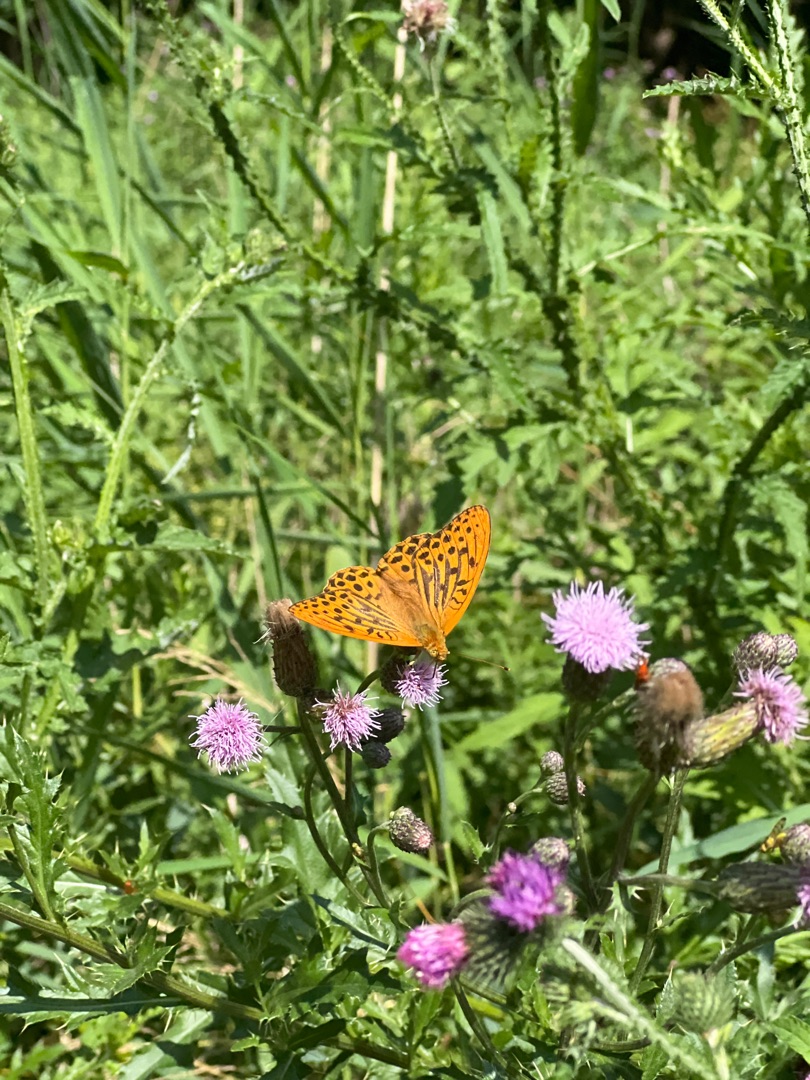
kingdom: Animalia
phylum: Arthropoda
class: Insecta
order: Lepidoptera
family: Nymphalidae
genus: Argynnis
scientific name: Argynnis paphia
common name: Kejserkåbe
